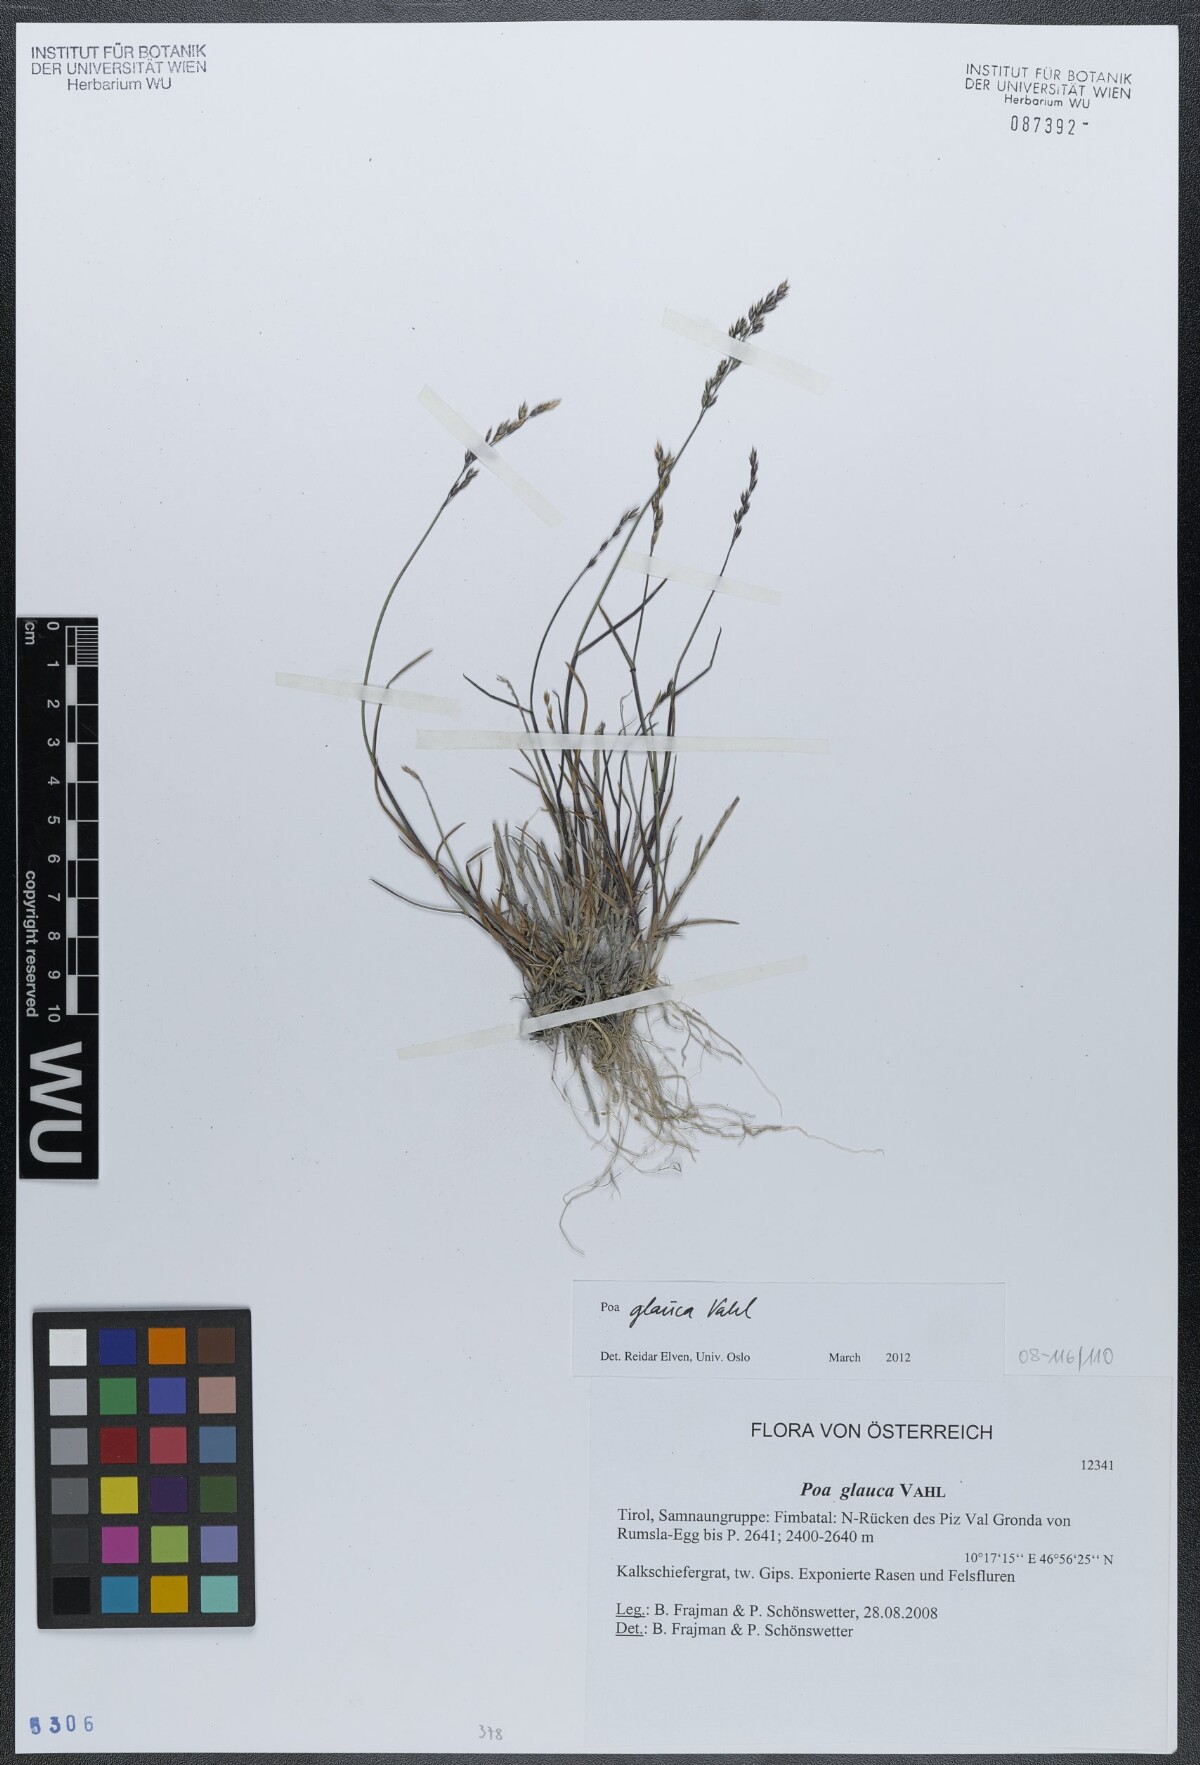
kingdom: Plantae
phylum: Tracheophyta
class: Liliopsida
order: Poales
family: Poaceae
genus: Poa
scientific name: Poa glauca
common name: Glaucous bluegrass
